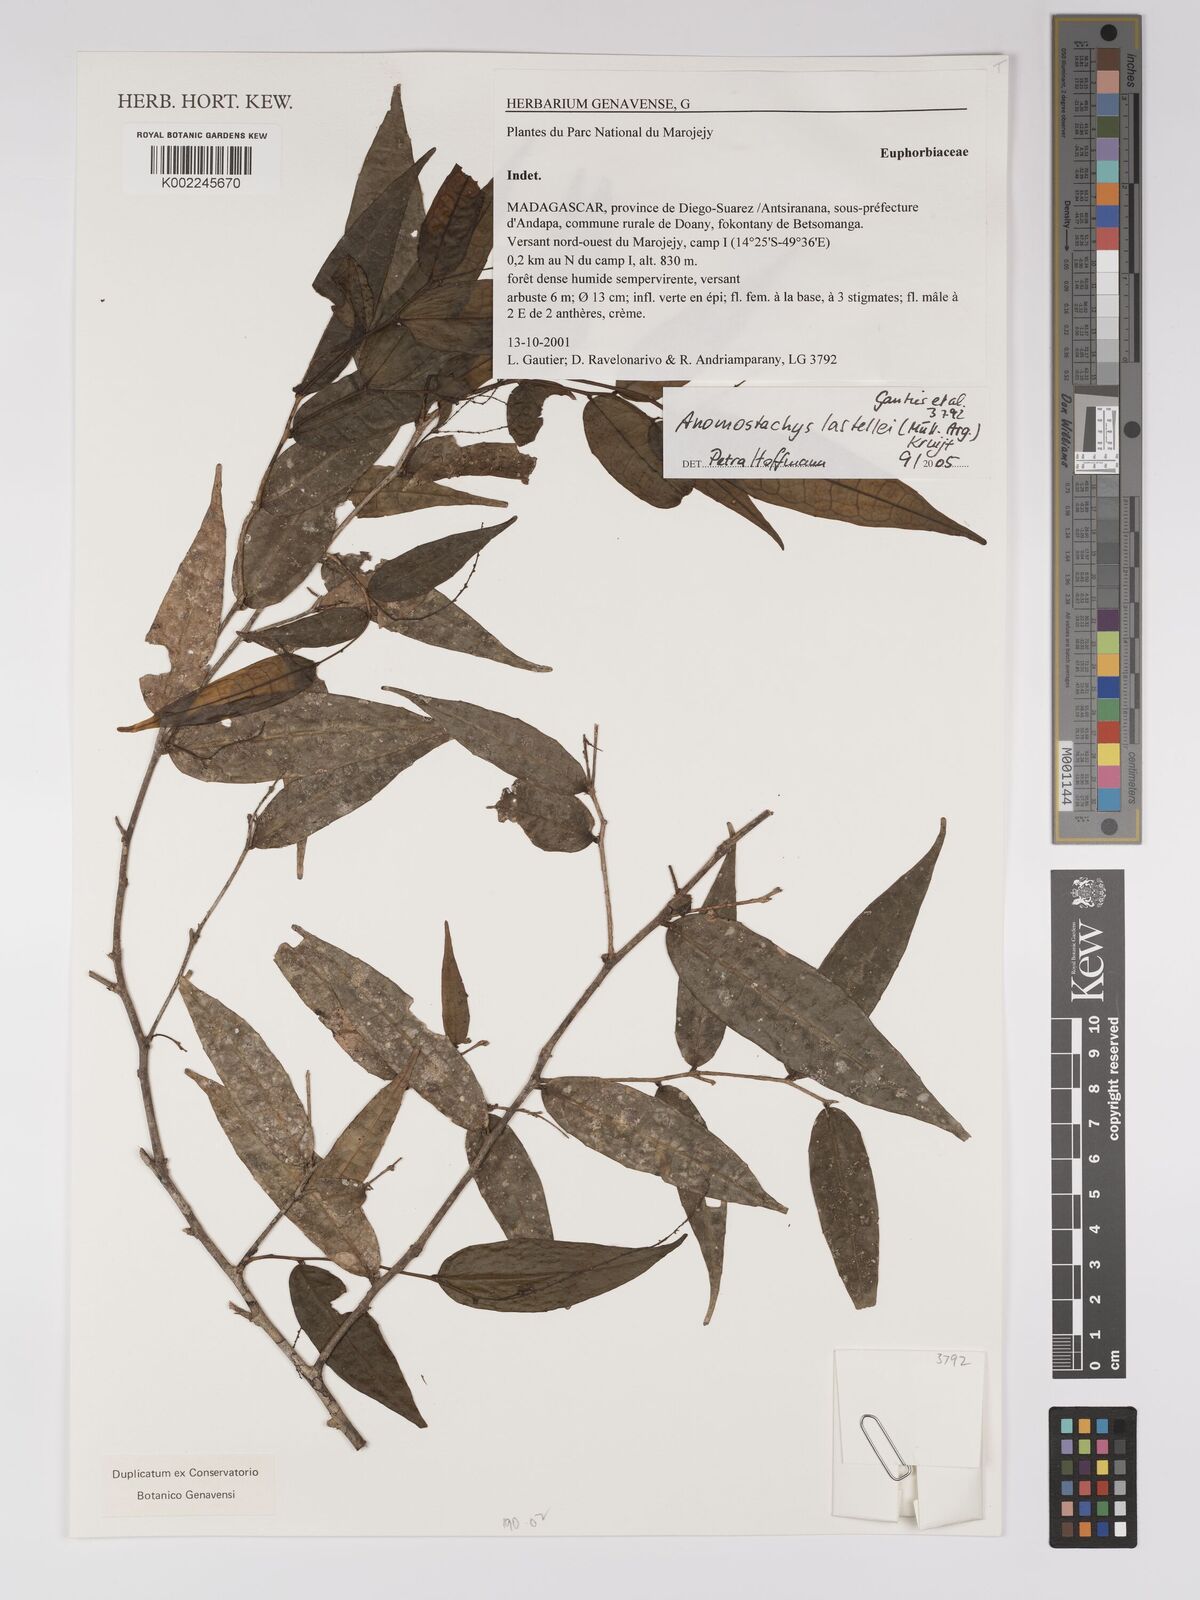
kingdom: Plantae
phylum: Tracheophyta
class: Magnoliopsida
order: Malpighiales
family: Euphorbiaceae
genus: Anomostachys
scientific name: Anomostachys lastellei
